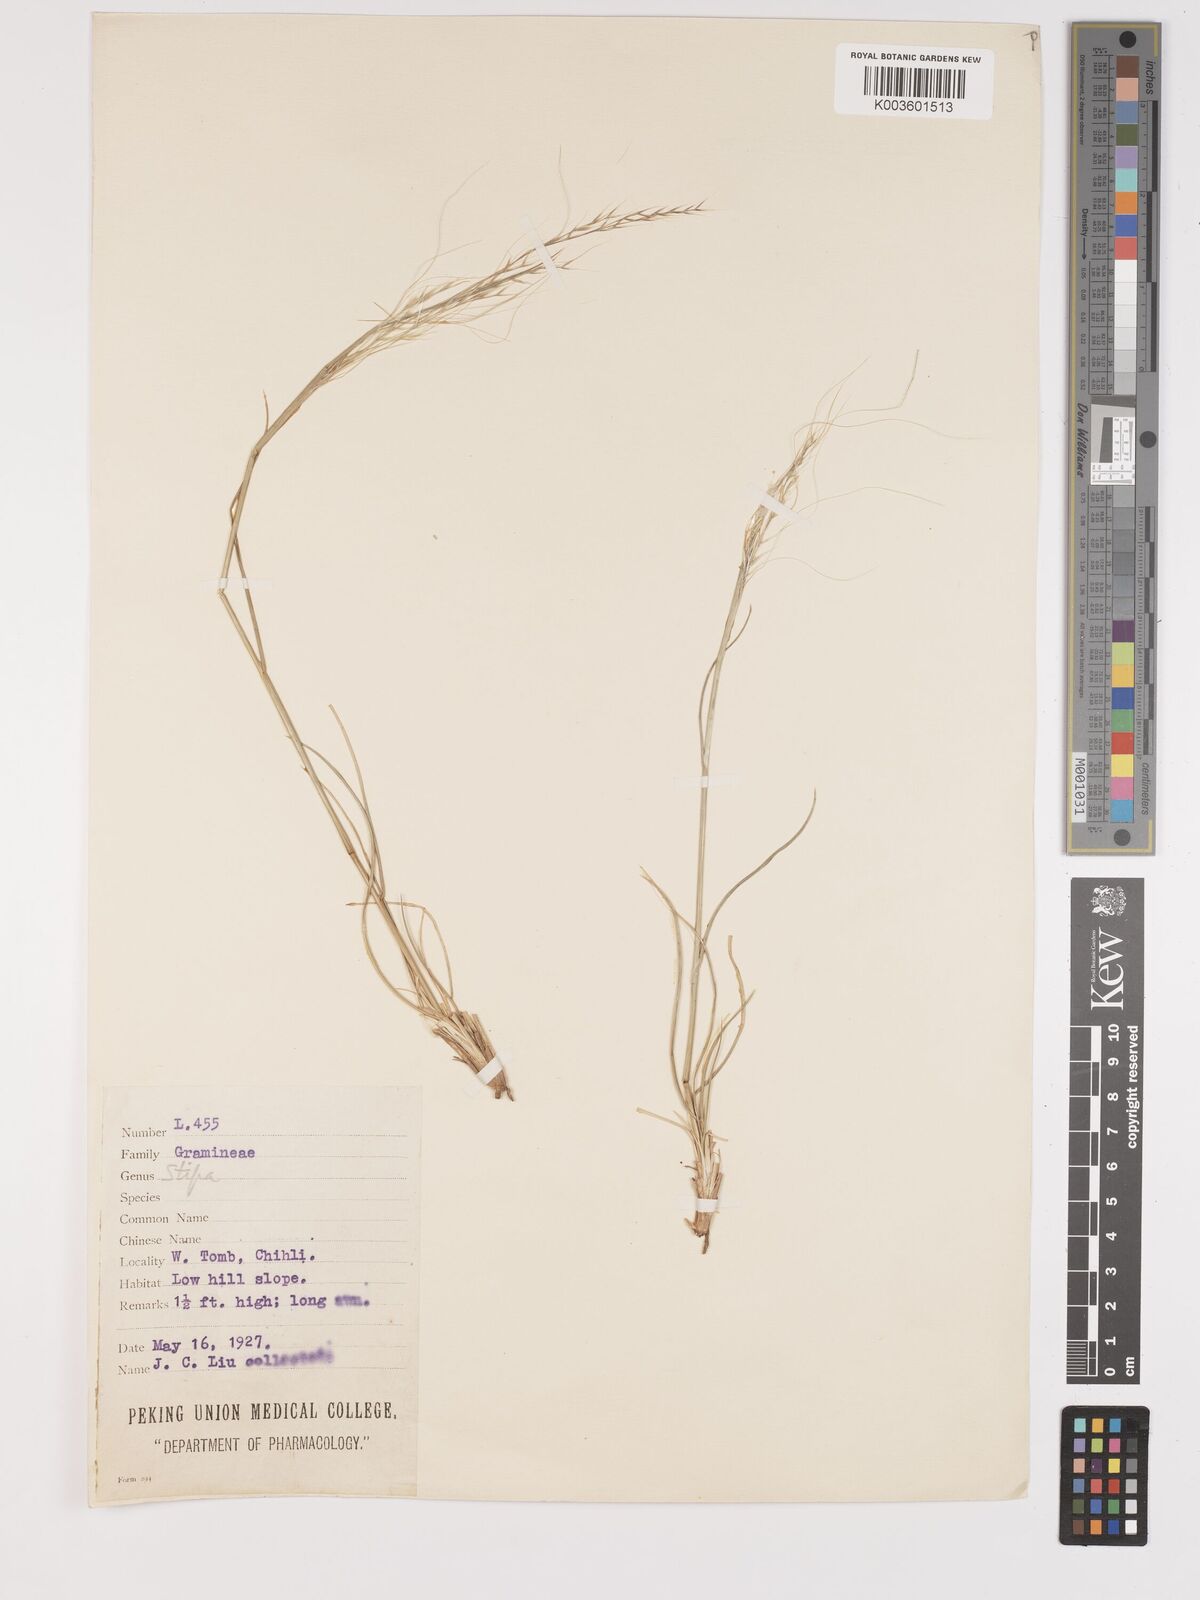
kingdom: Plantae
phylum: Tracheophyta
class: Liliopsida
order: Poales
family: Poaceae
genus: Stipa
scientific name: Stipa
